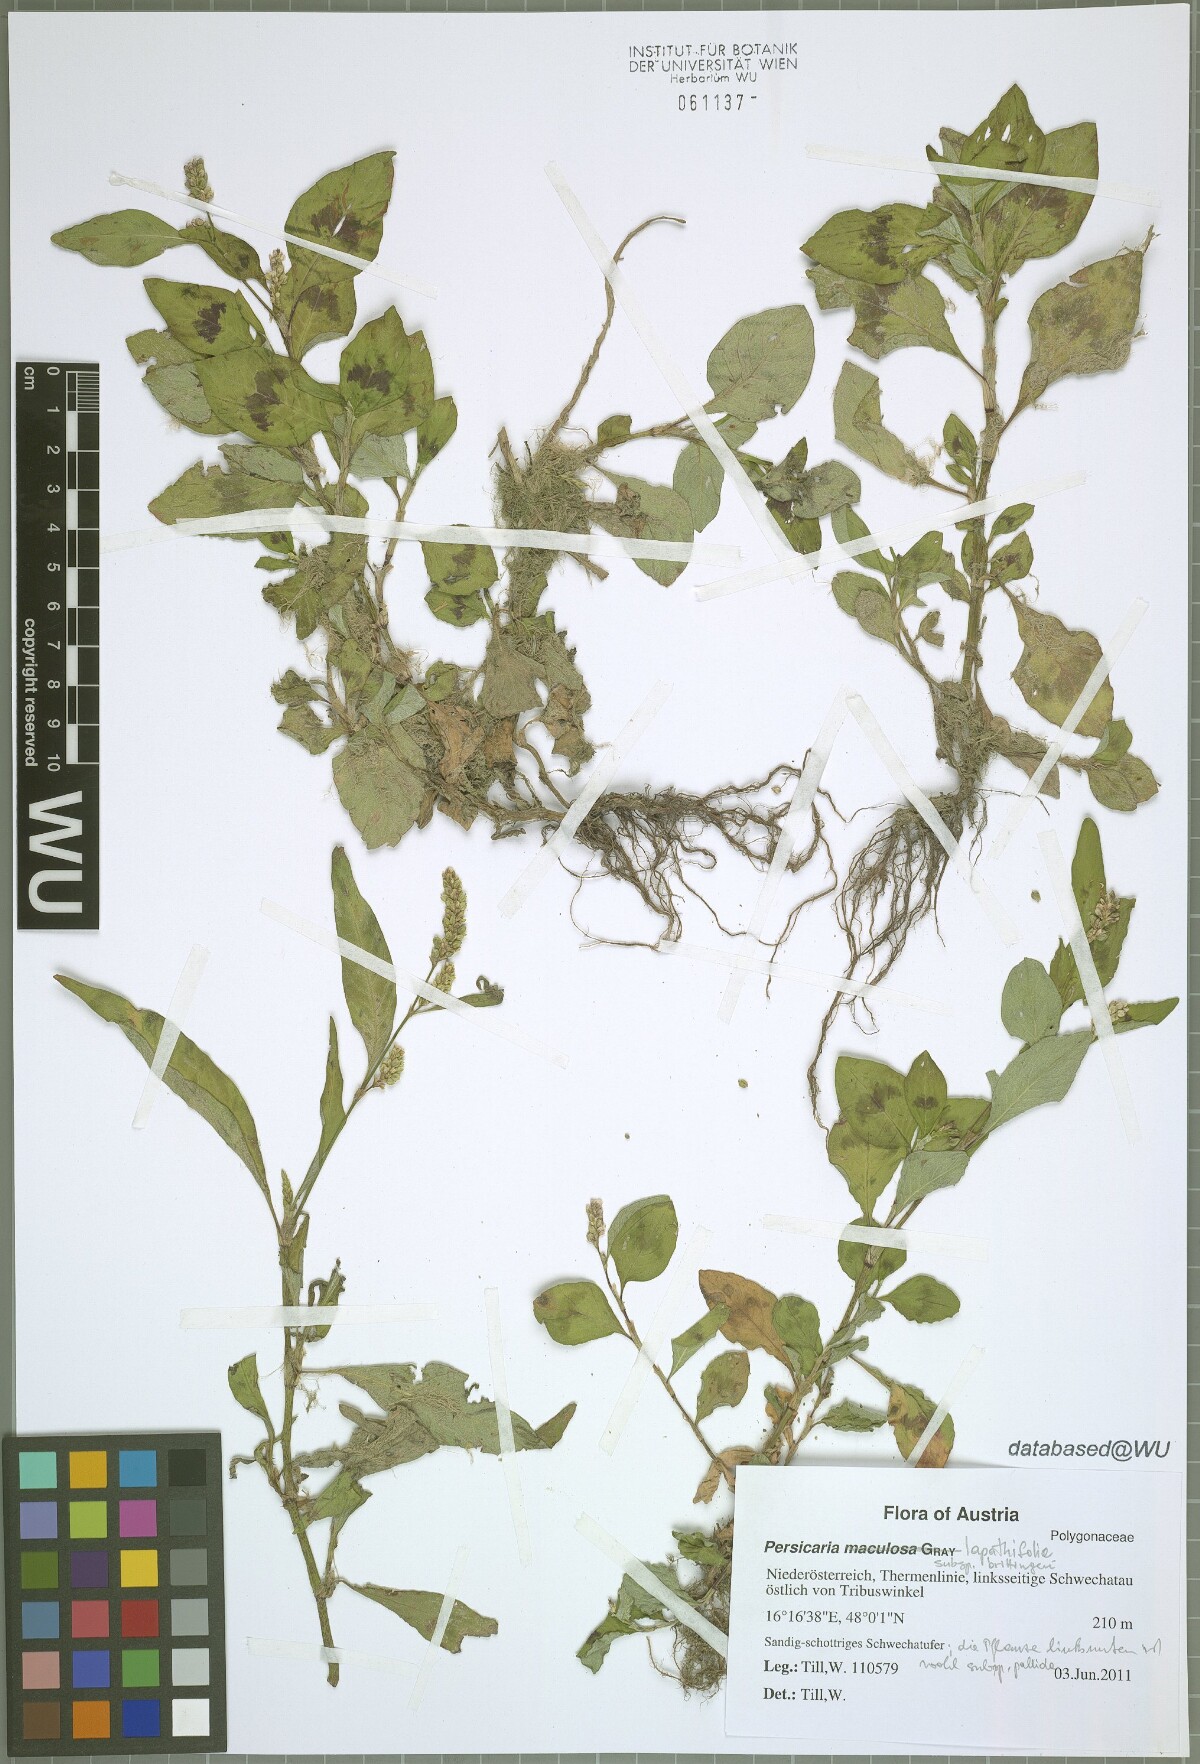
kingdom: Plantae
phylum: Tracheophyta
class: Magnoliopsida
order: Caryophyllales
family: Polygonaceae
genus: Persicaria
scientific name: Persicaria lapathifolia
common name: Curlytop knotweed
